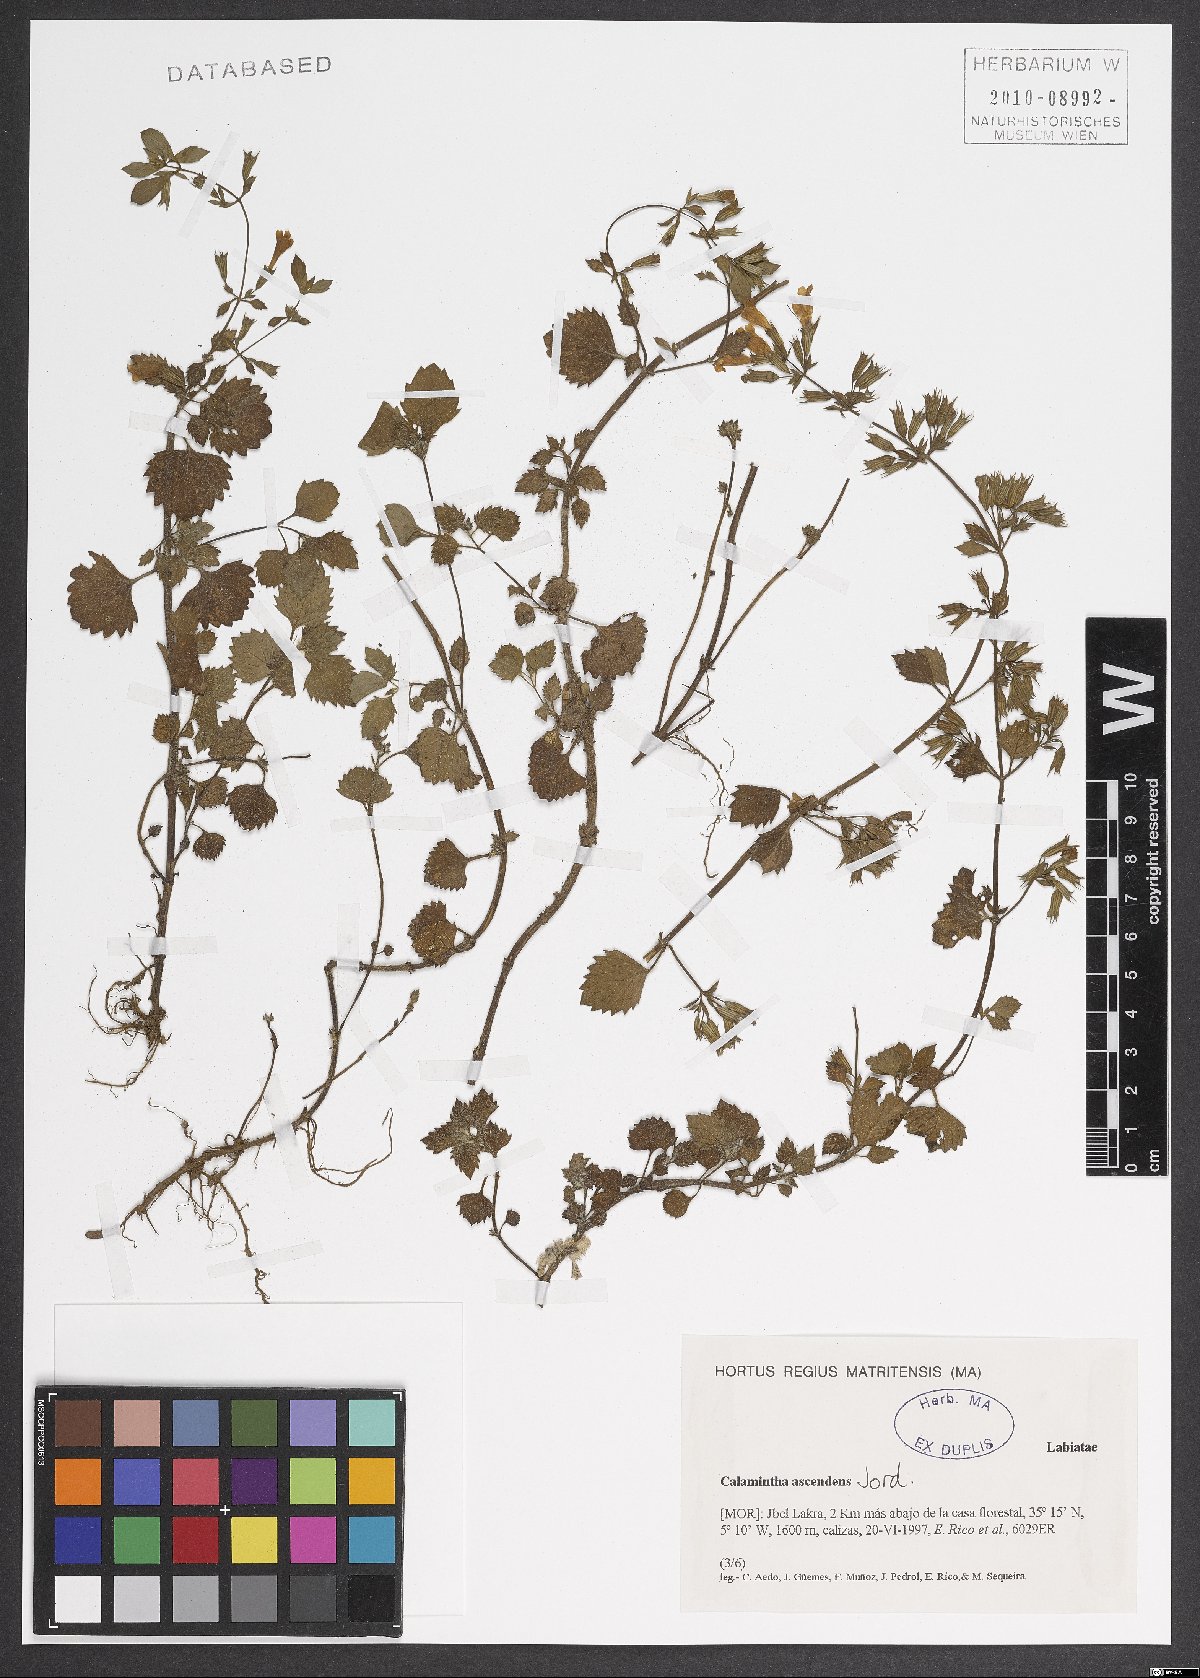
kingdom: Plantae
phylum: Tracheophyta
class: Magnoliopsida
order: Lamiales
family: Lamiaceae
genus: Clinopodium
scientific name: Clinopodium menthifolium
